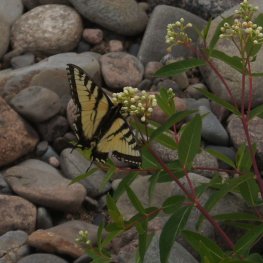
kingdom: Animalia
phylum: Arthropoda
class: Insecta
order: Lepidoptera
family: Papilionidae
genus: Pterourus
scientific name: Pterourus canadensis
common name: Canadian Tiger Swallowtail
